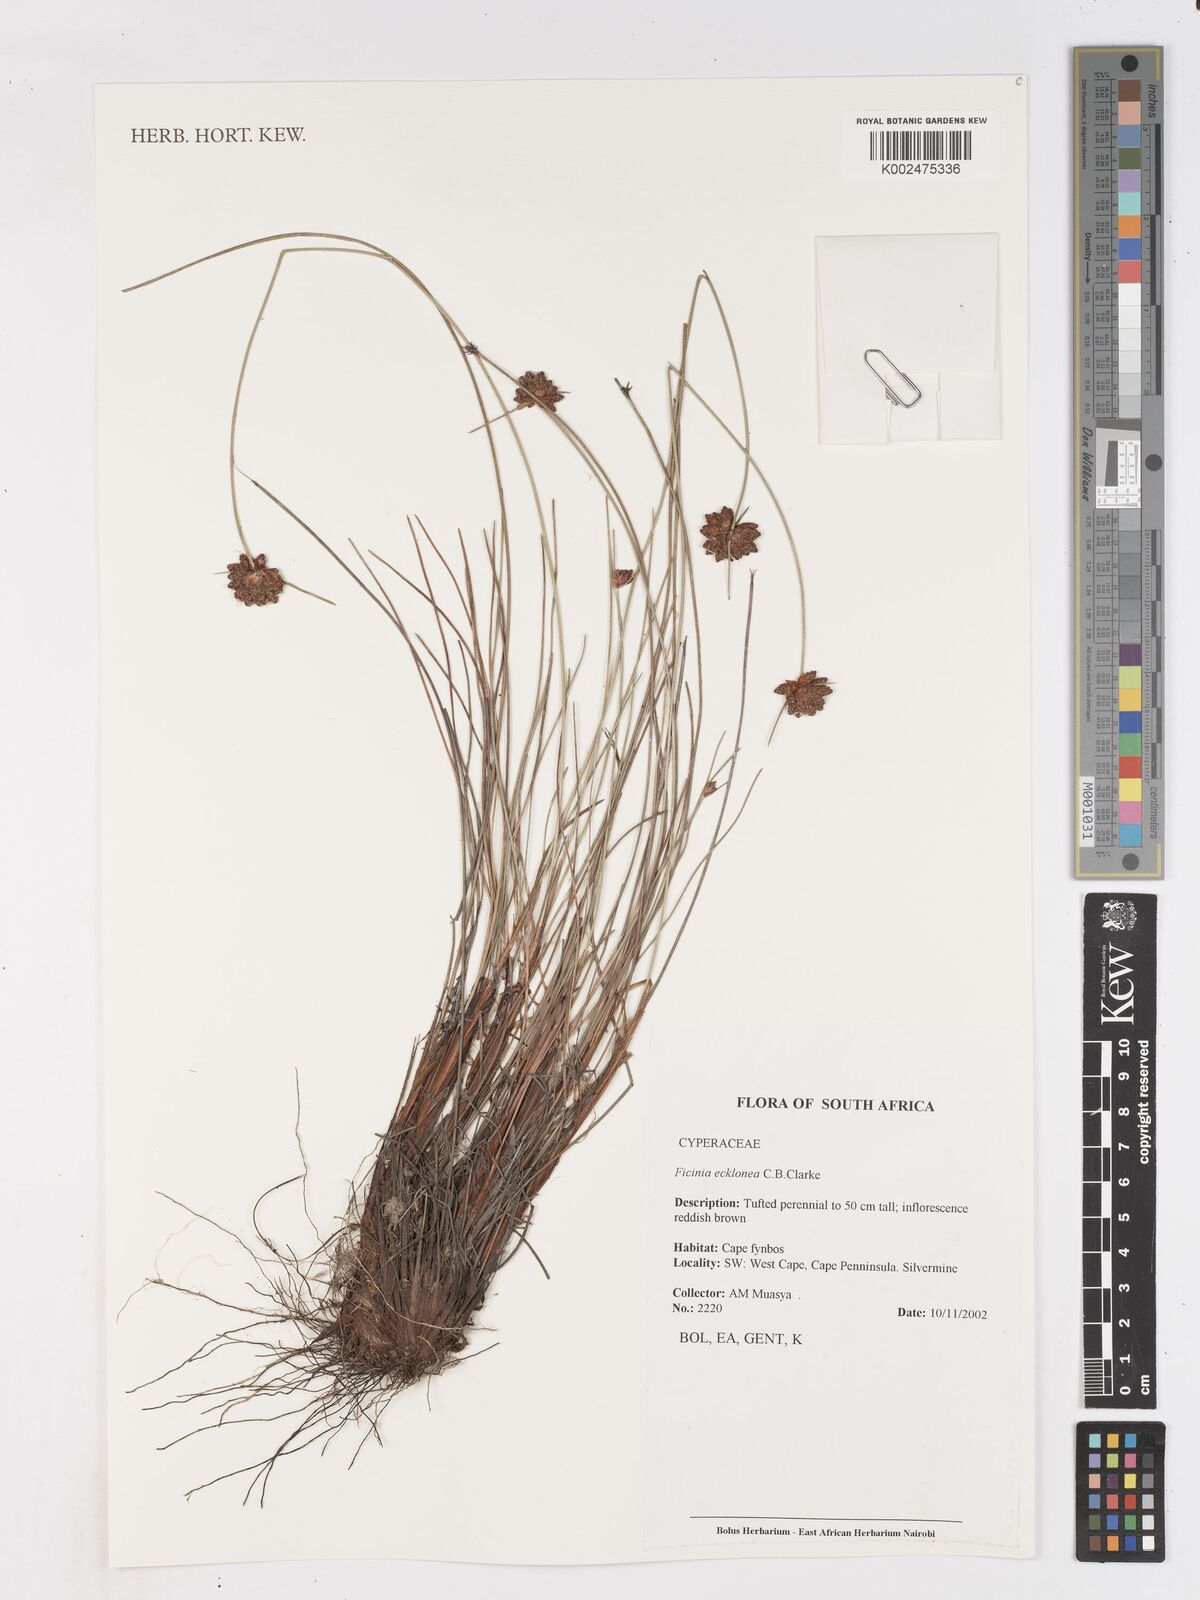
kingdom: Plantae
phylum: Tracheophyta
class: Liliopsida
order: Poales
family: Cyperaceae
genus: Ficinia
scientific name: Ficinia ecklonea
